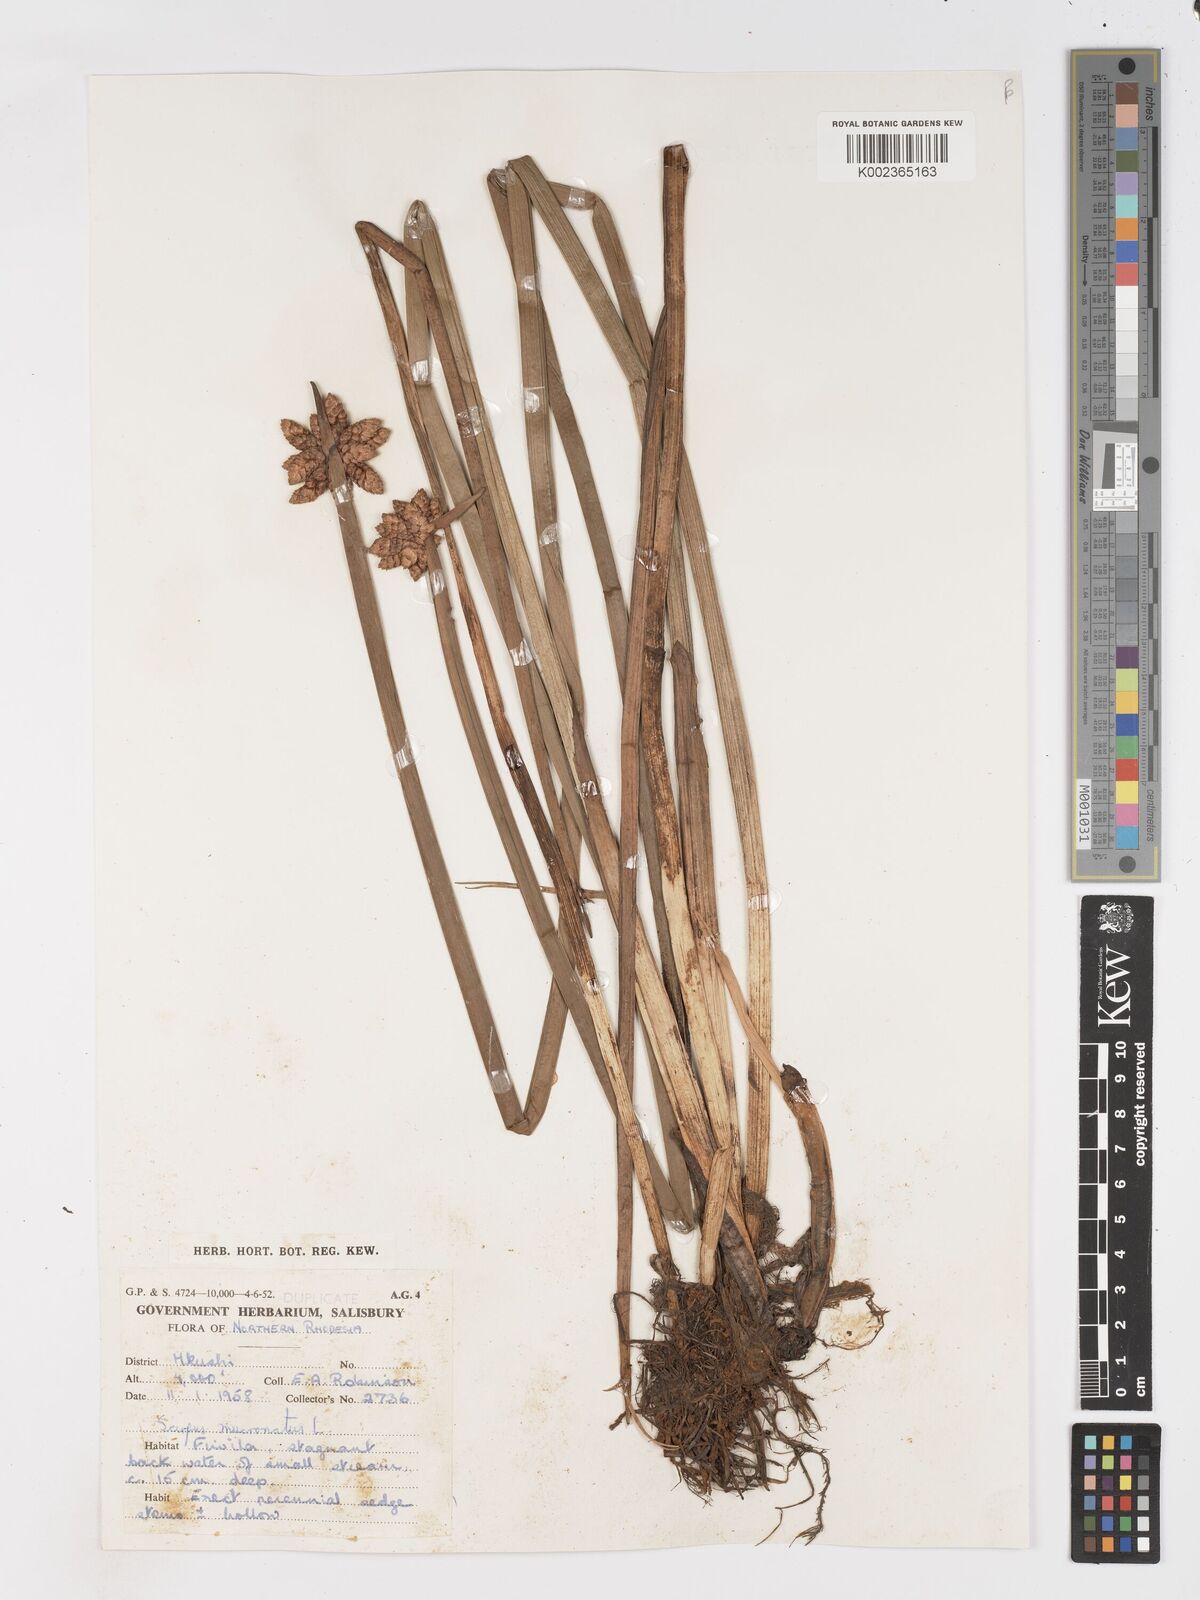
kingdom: Plantae
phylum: Tracheophyta
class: Liliopsida
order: Poales
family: Cyperaceae
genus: Schoenoplectiella
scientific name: Schoenoplectiella mucronata
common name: Bog bulrush
